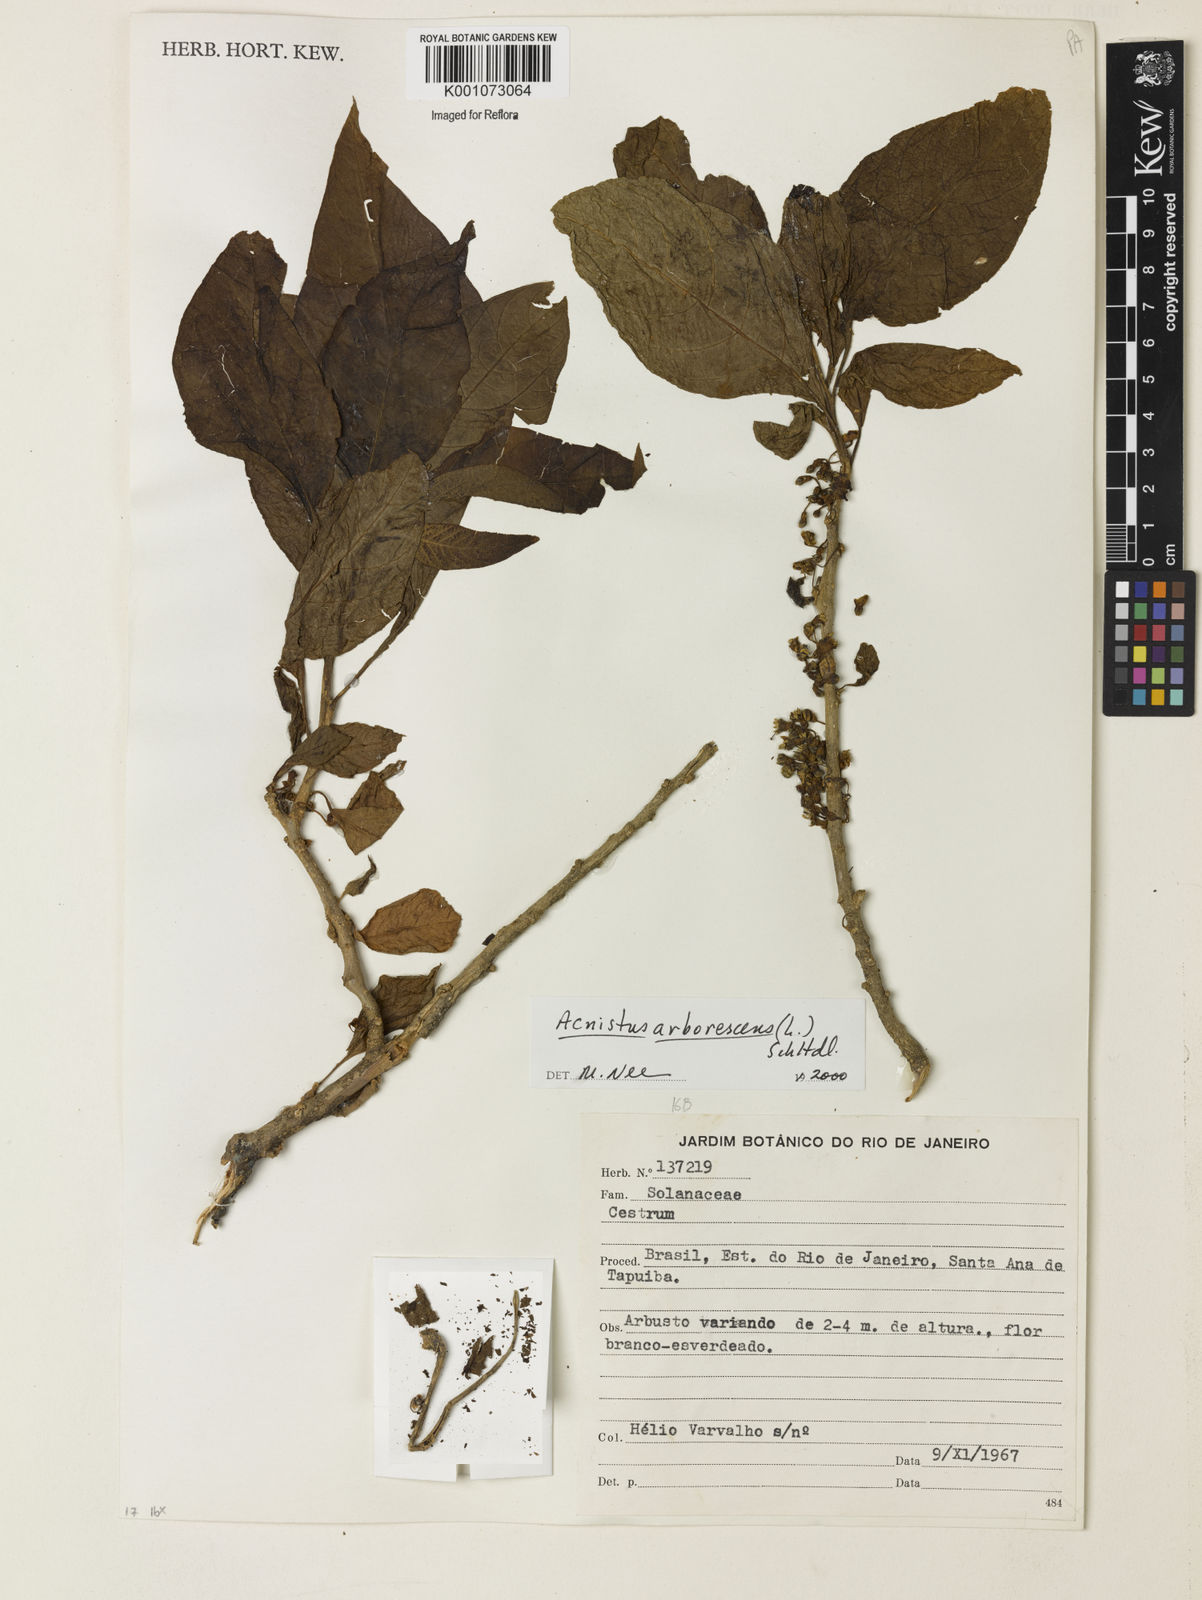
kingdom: Plantae
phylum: Tracheophyta
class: Magnoliopsida
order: Solanales
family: Solanaceae
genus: Iochroma
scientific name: Iochroma arborescens
